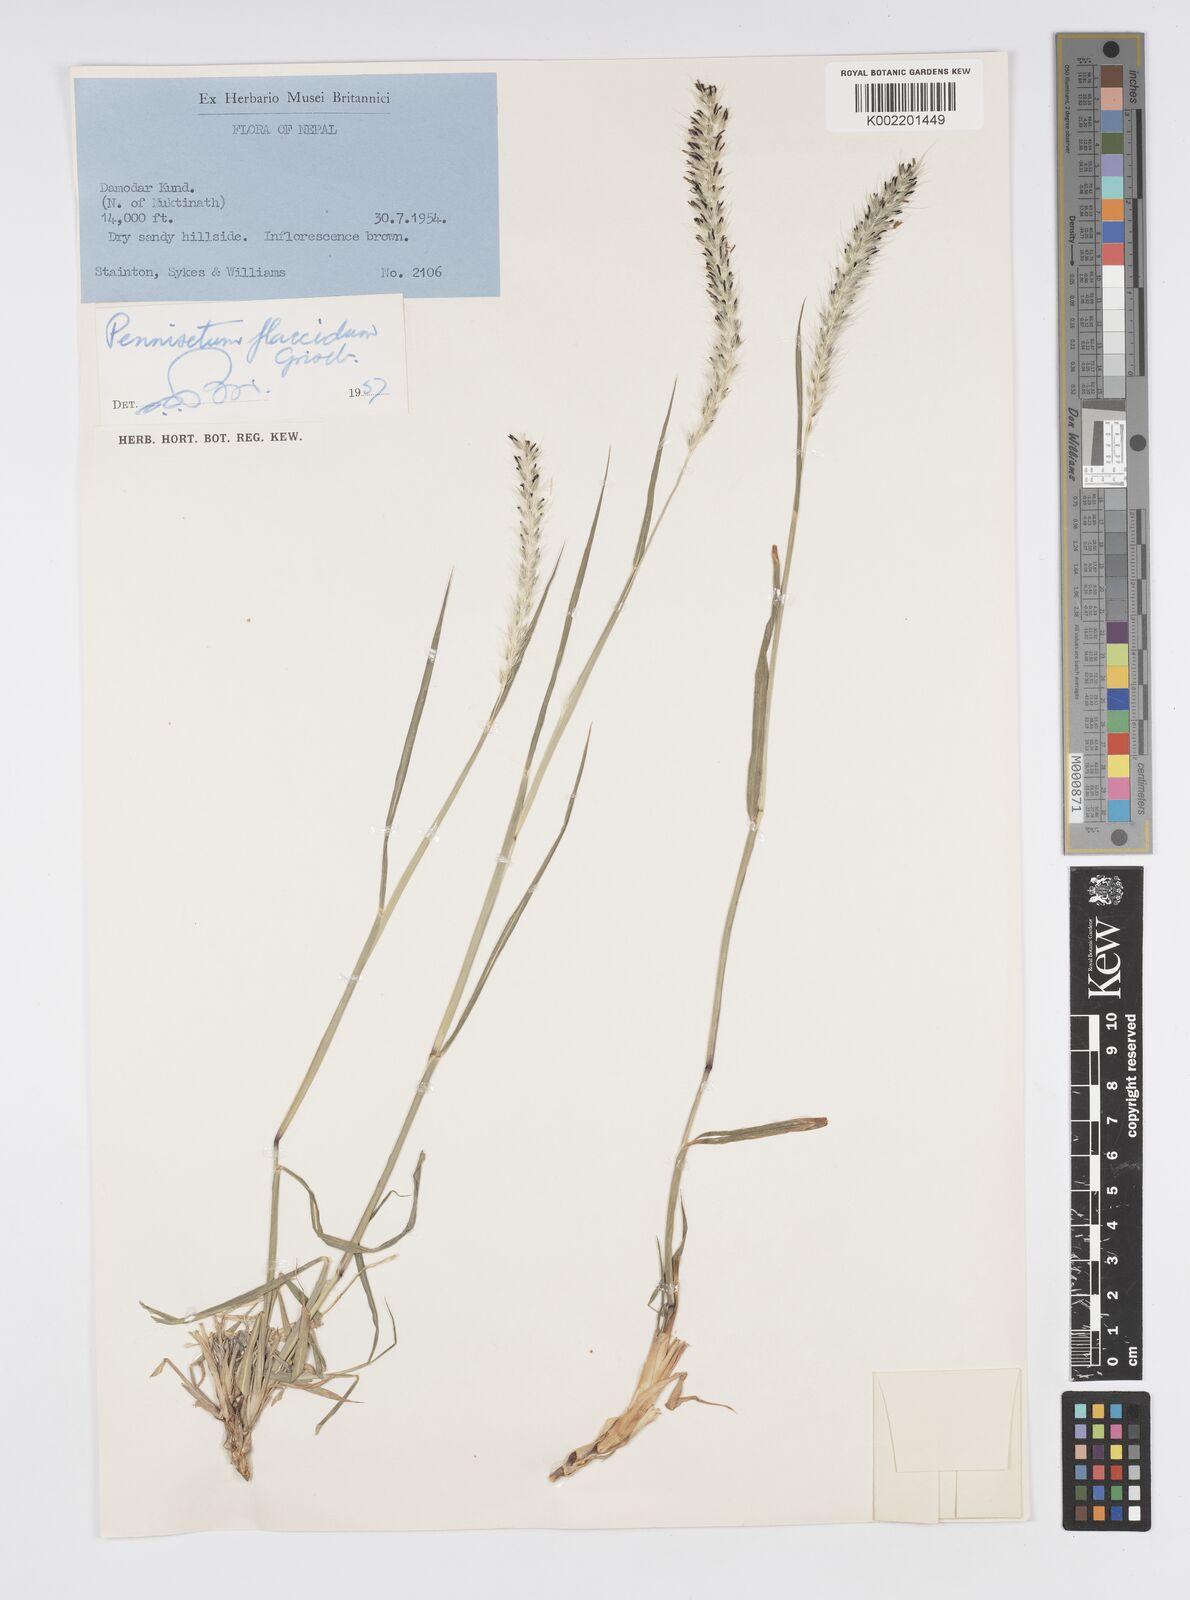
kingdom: Plantae
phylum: Tracheophyta
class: Liliopsida
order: Poales
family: Poaceae
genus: Cenchrus
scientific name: Cenchrus flaccidus
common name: Flaccid grass
